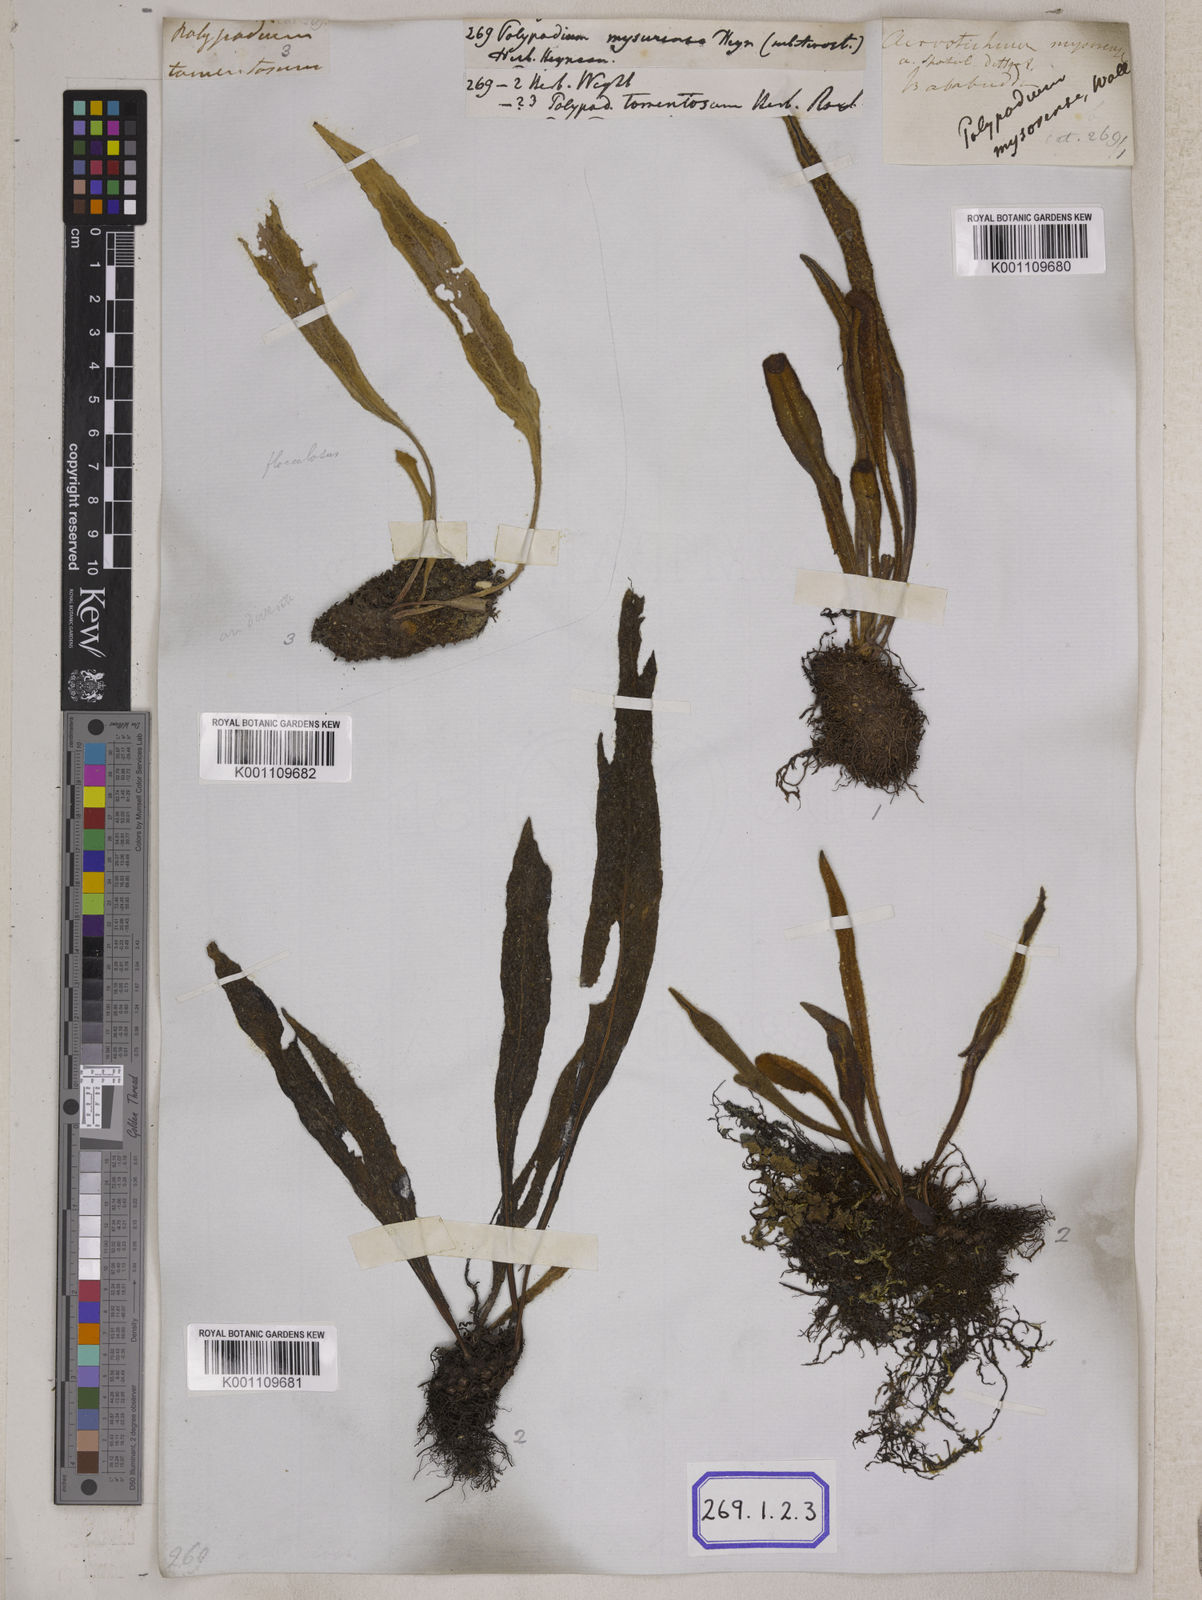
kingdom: Plantae
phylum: Tracheophyta
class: Polypodiopsida
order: Polypodiales
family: Polypodiaceae
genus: Polypodium
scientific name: Polypodium
